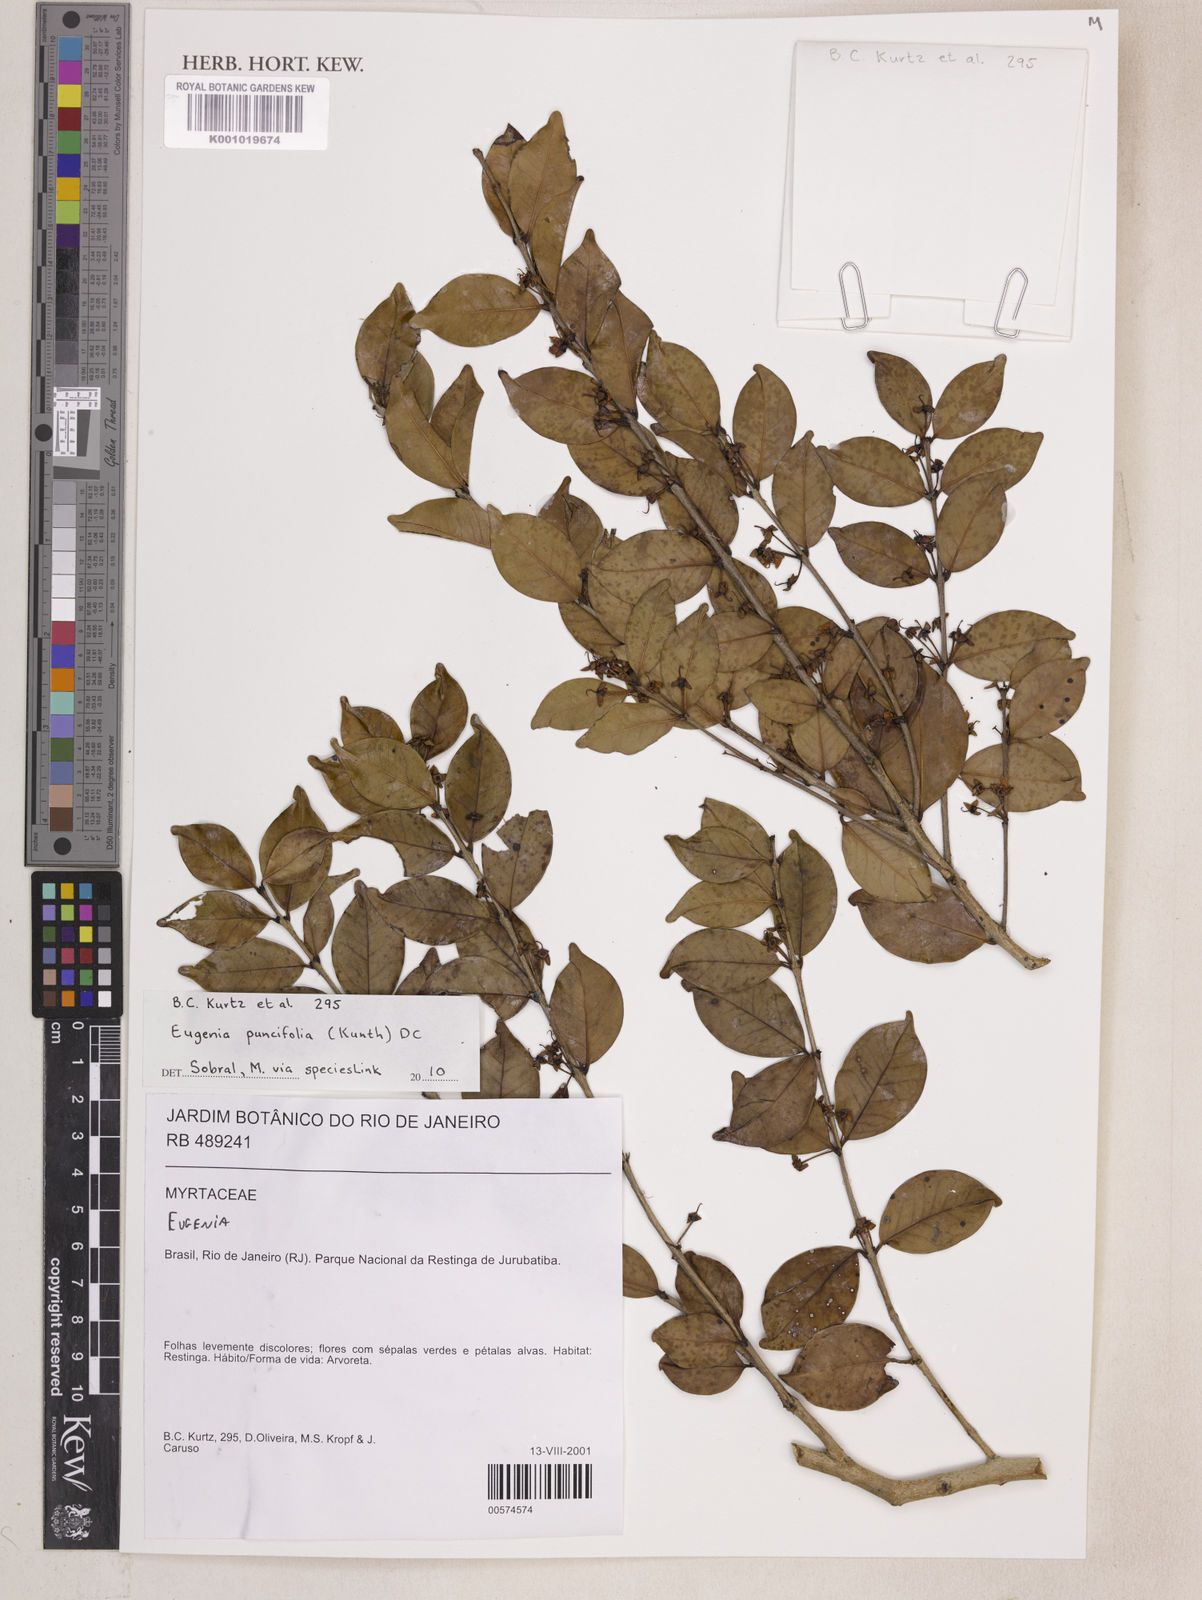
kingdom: Plantae
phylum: Tracheophyta
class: Magnoliopsida
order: Myrtales
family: Myrtaceae
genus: Eugenia
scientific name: Eugenia punicifolia
